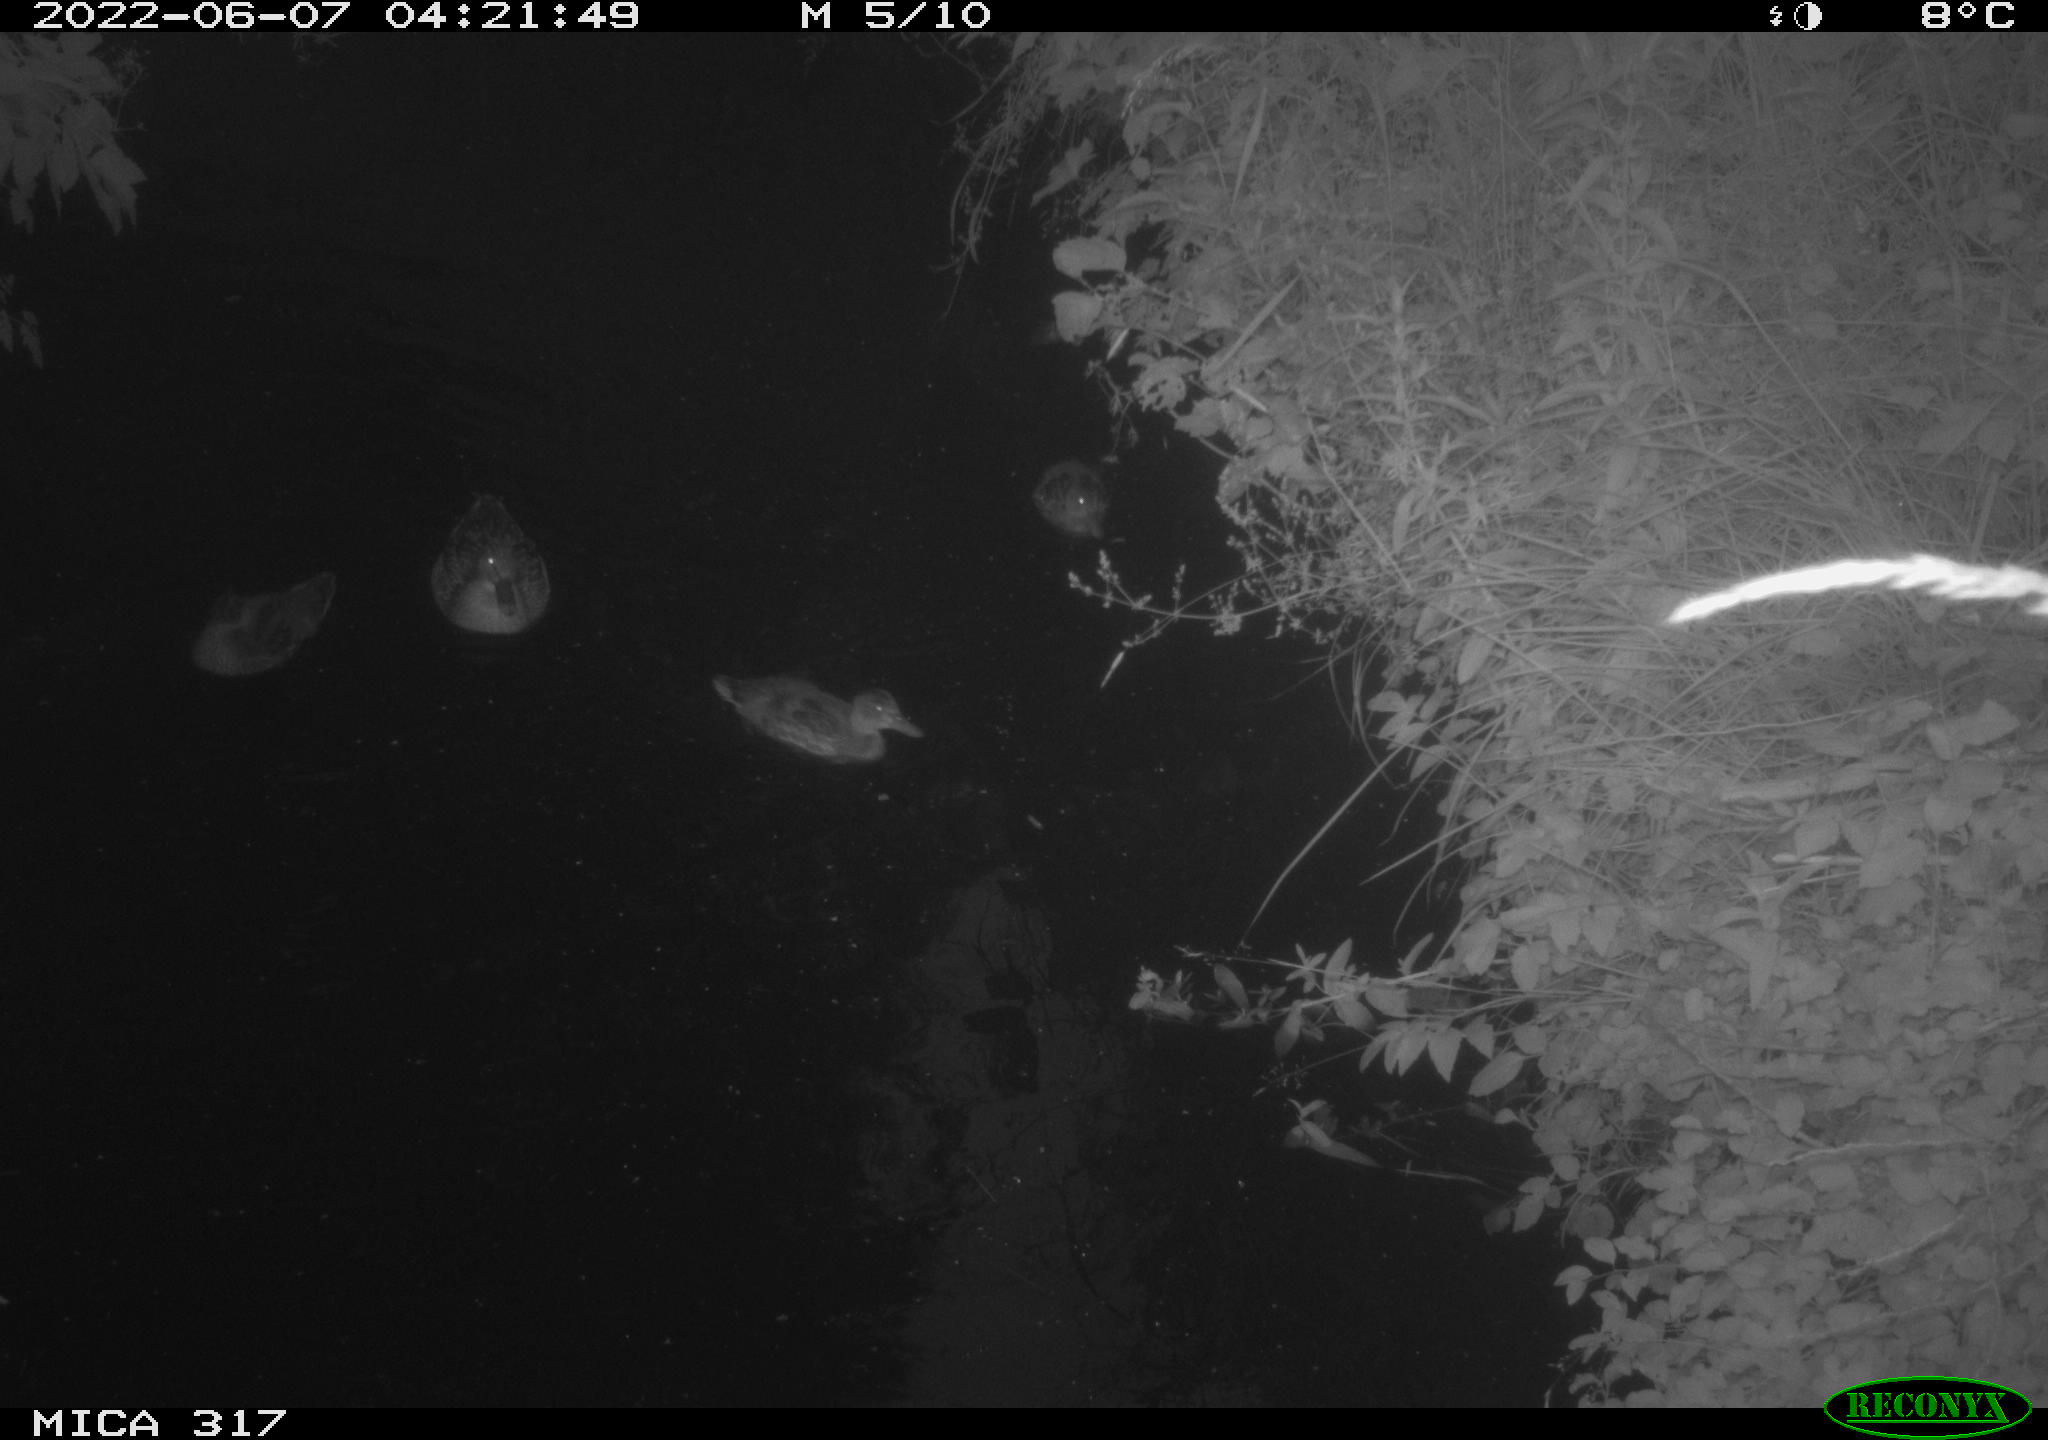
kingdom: Animalia
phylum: Chordata
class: Aves
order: Anseriformes
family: Anatidae
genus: Anas
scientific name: Anas
